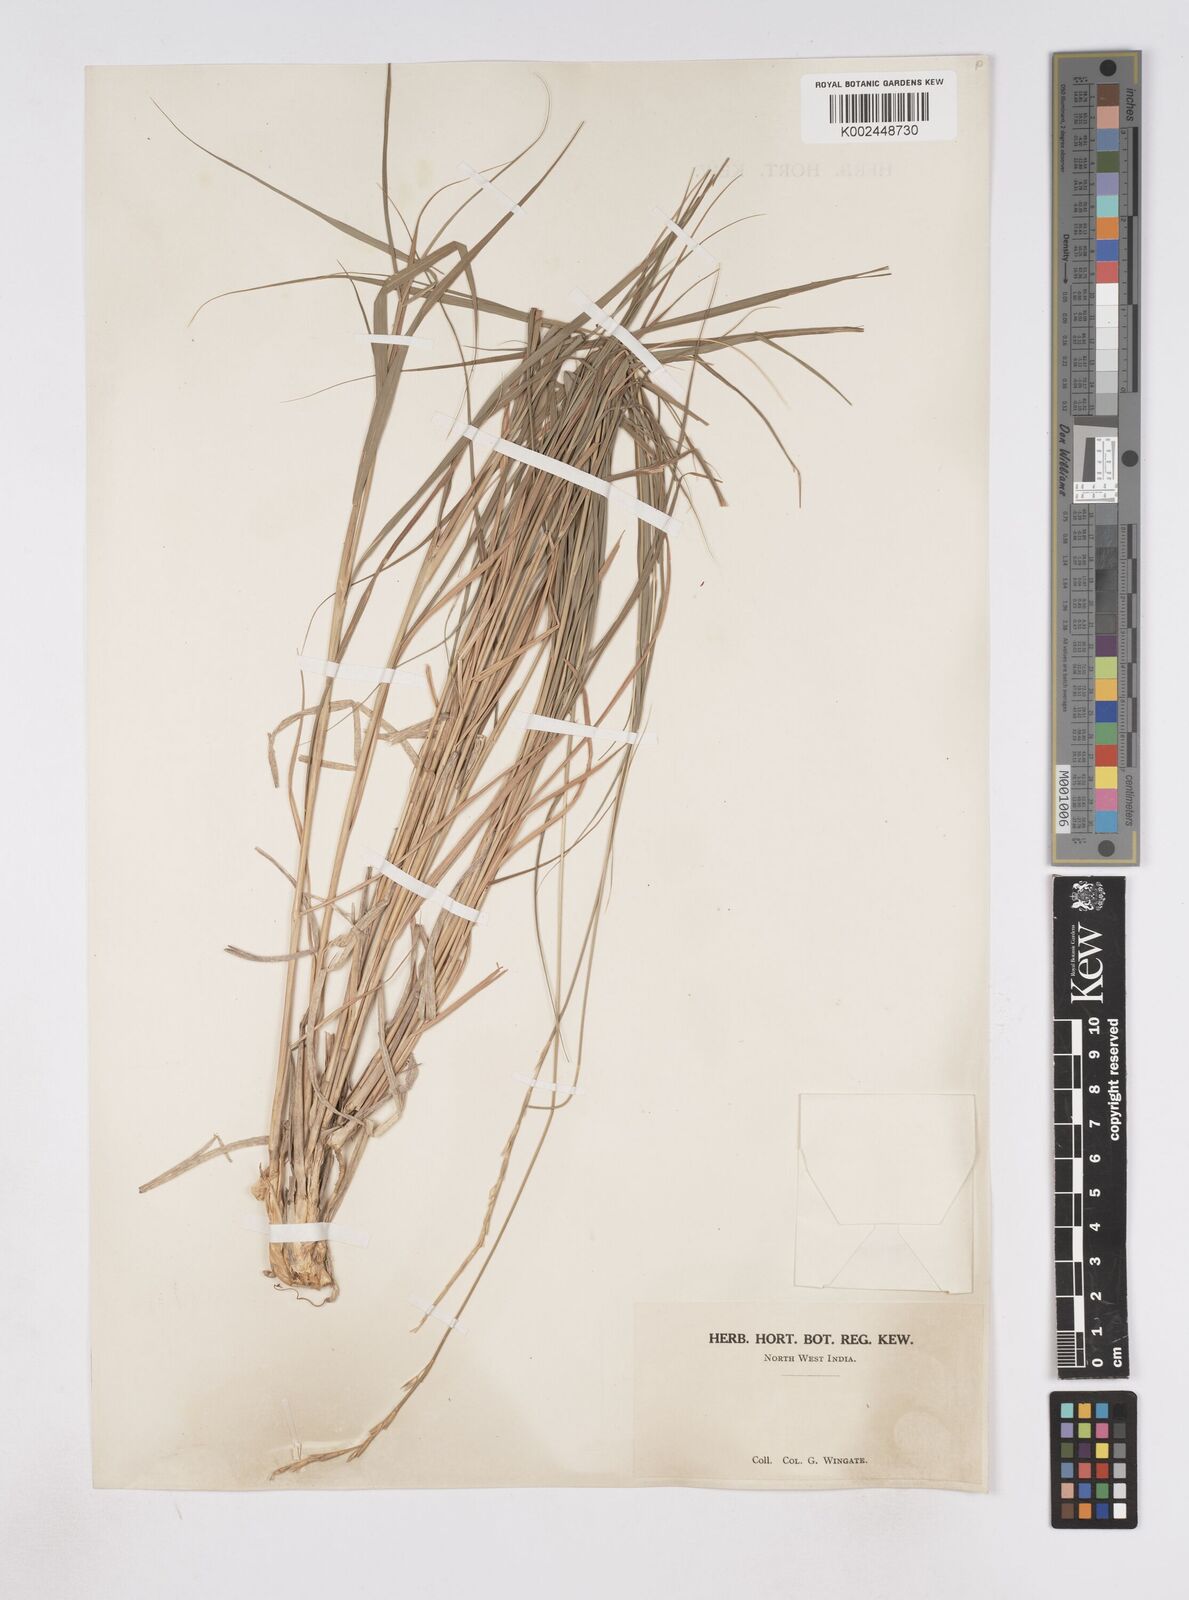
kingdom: Plantae
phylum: Tracheophyta
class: Liliopsida
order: Poales
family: Poaceae
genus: Phacelurus
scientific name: Phacelurus speciosus
